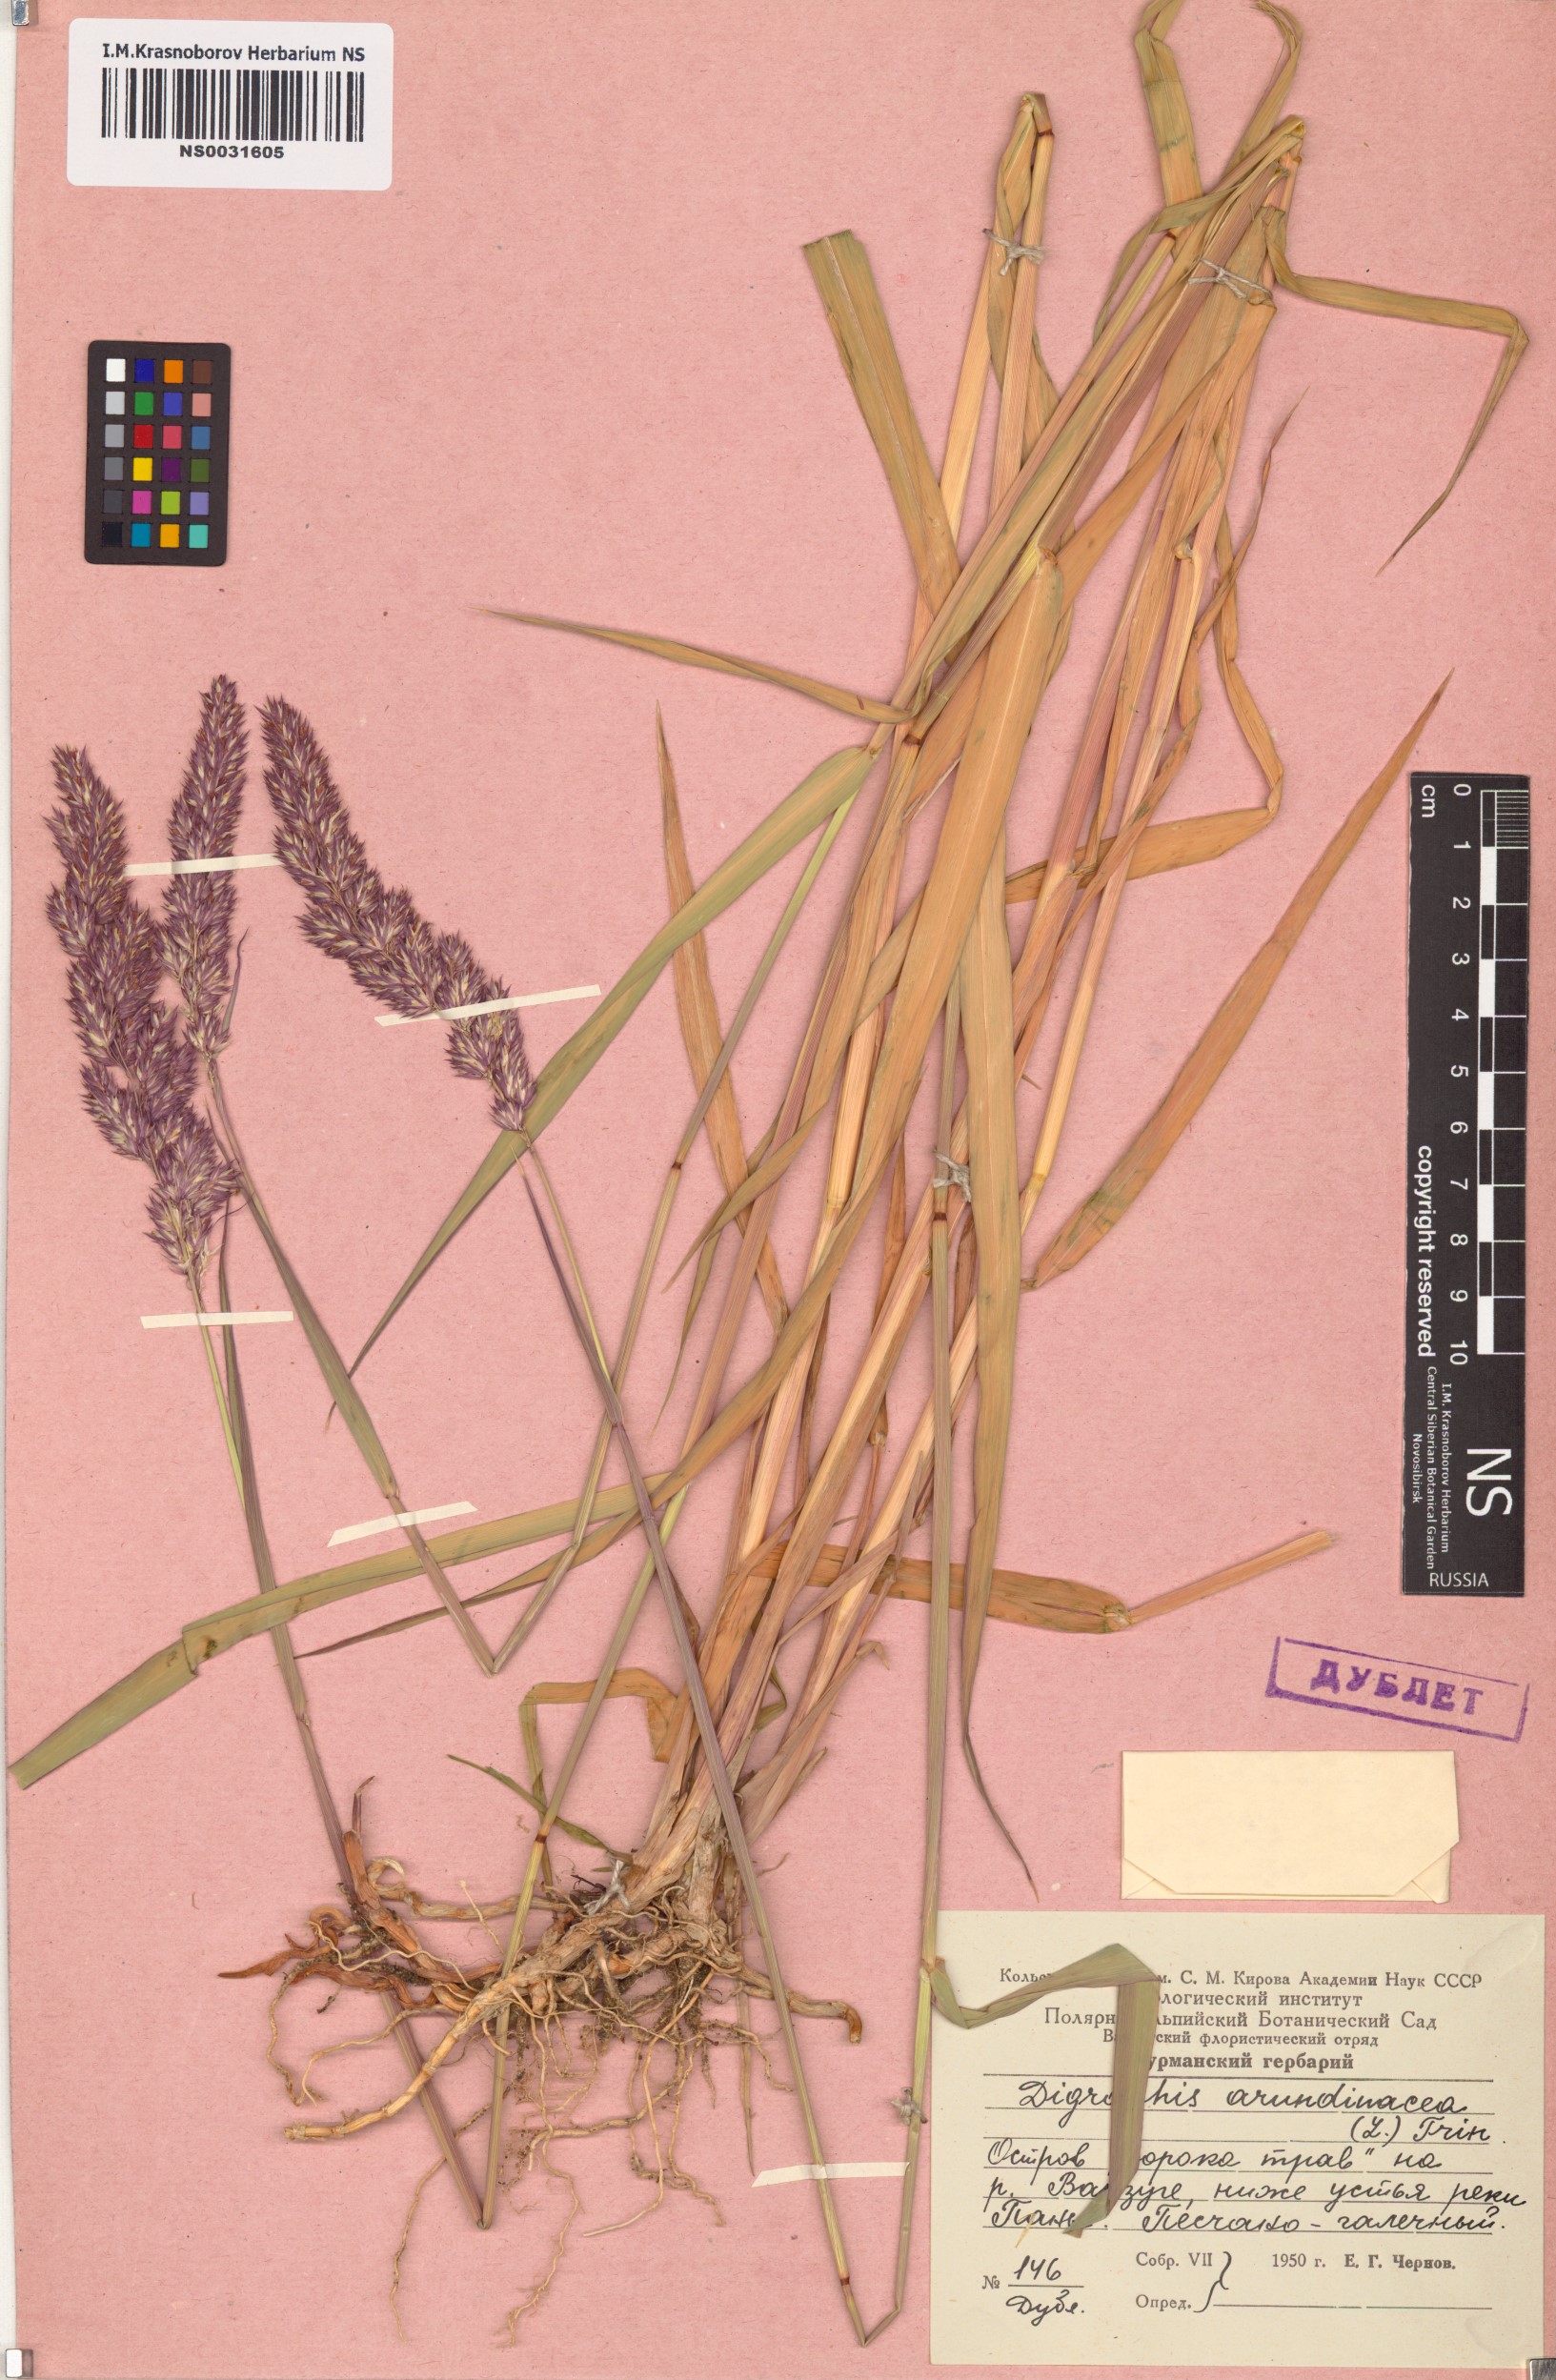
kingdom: Plantae
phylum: Tracheophyta
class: Liliopsida
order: Poales
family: Poaceae
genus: Phalaris
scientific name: Phalaris arundinacea
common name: Reed canary-grass
